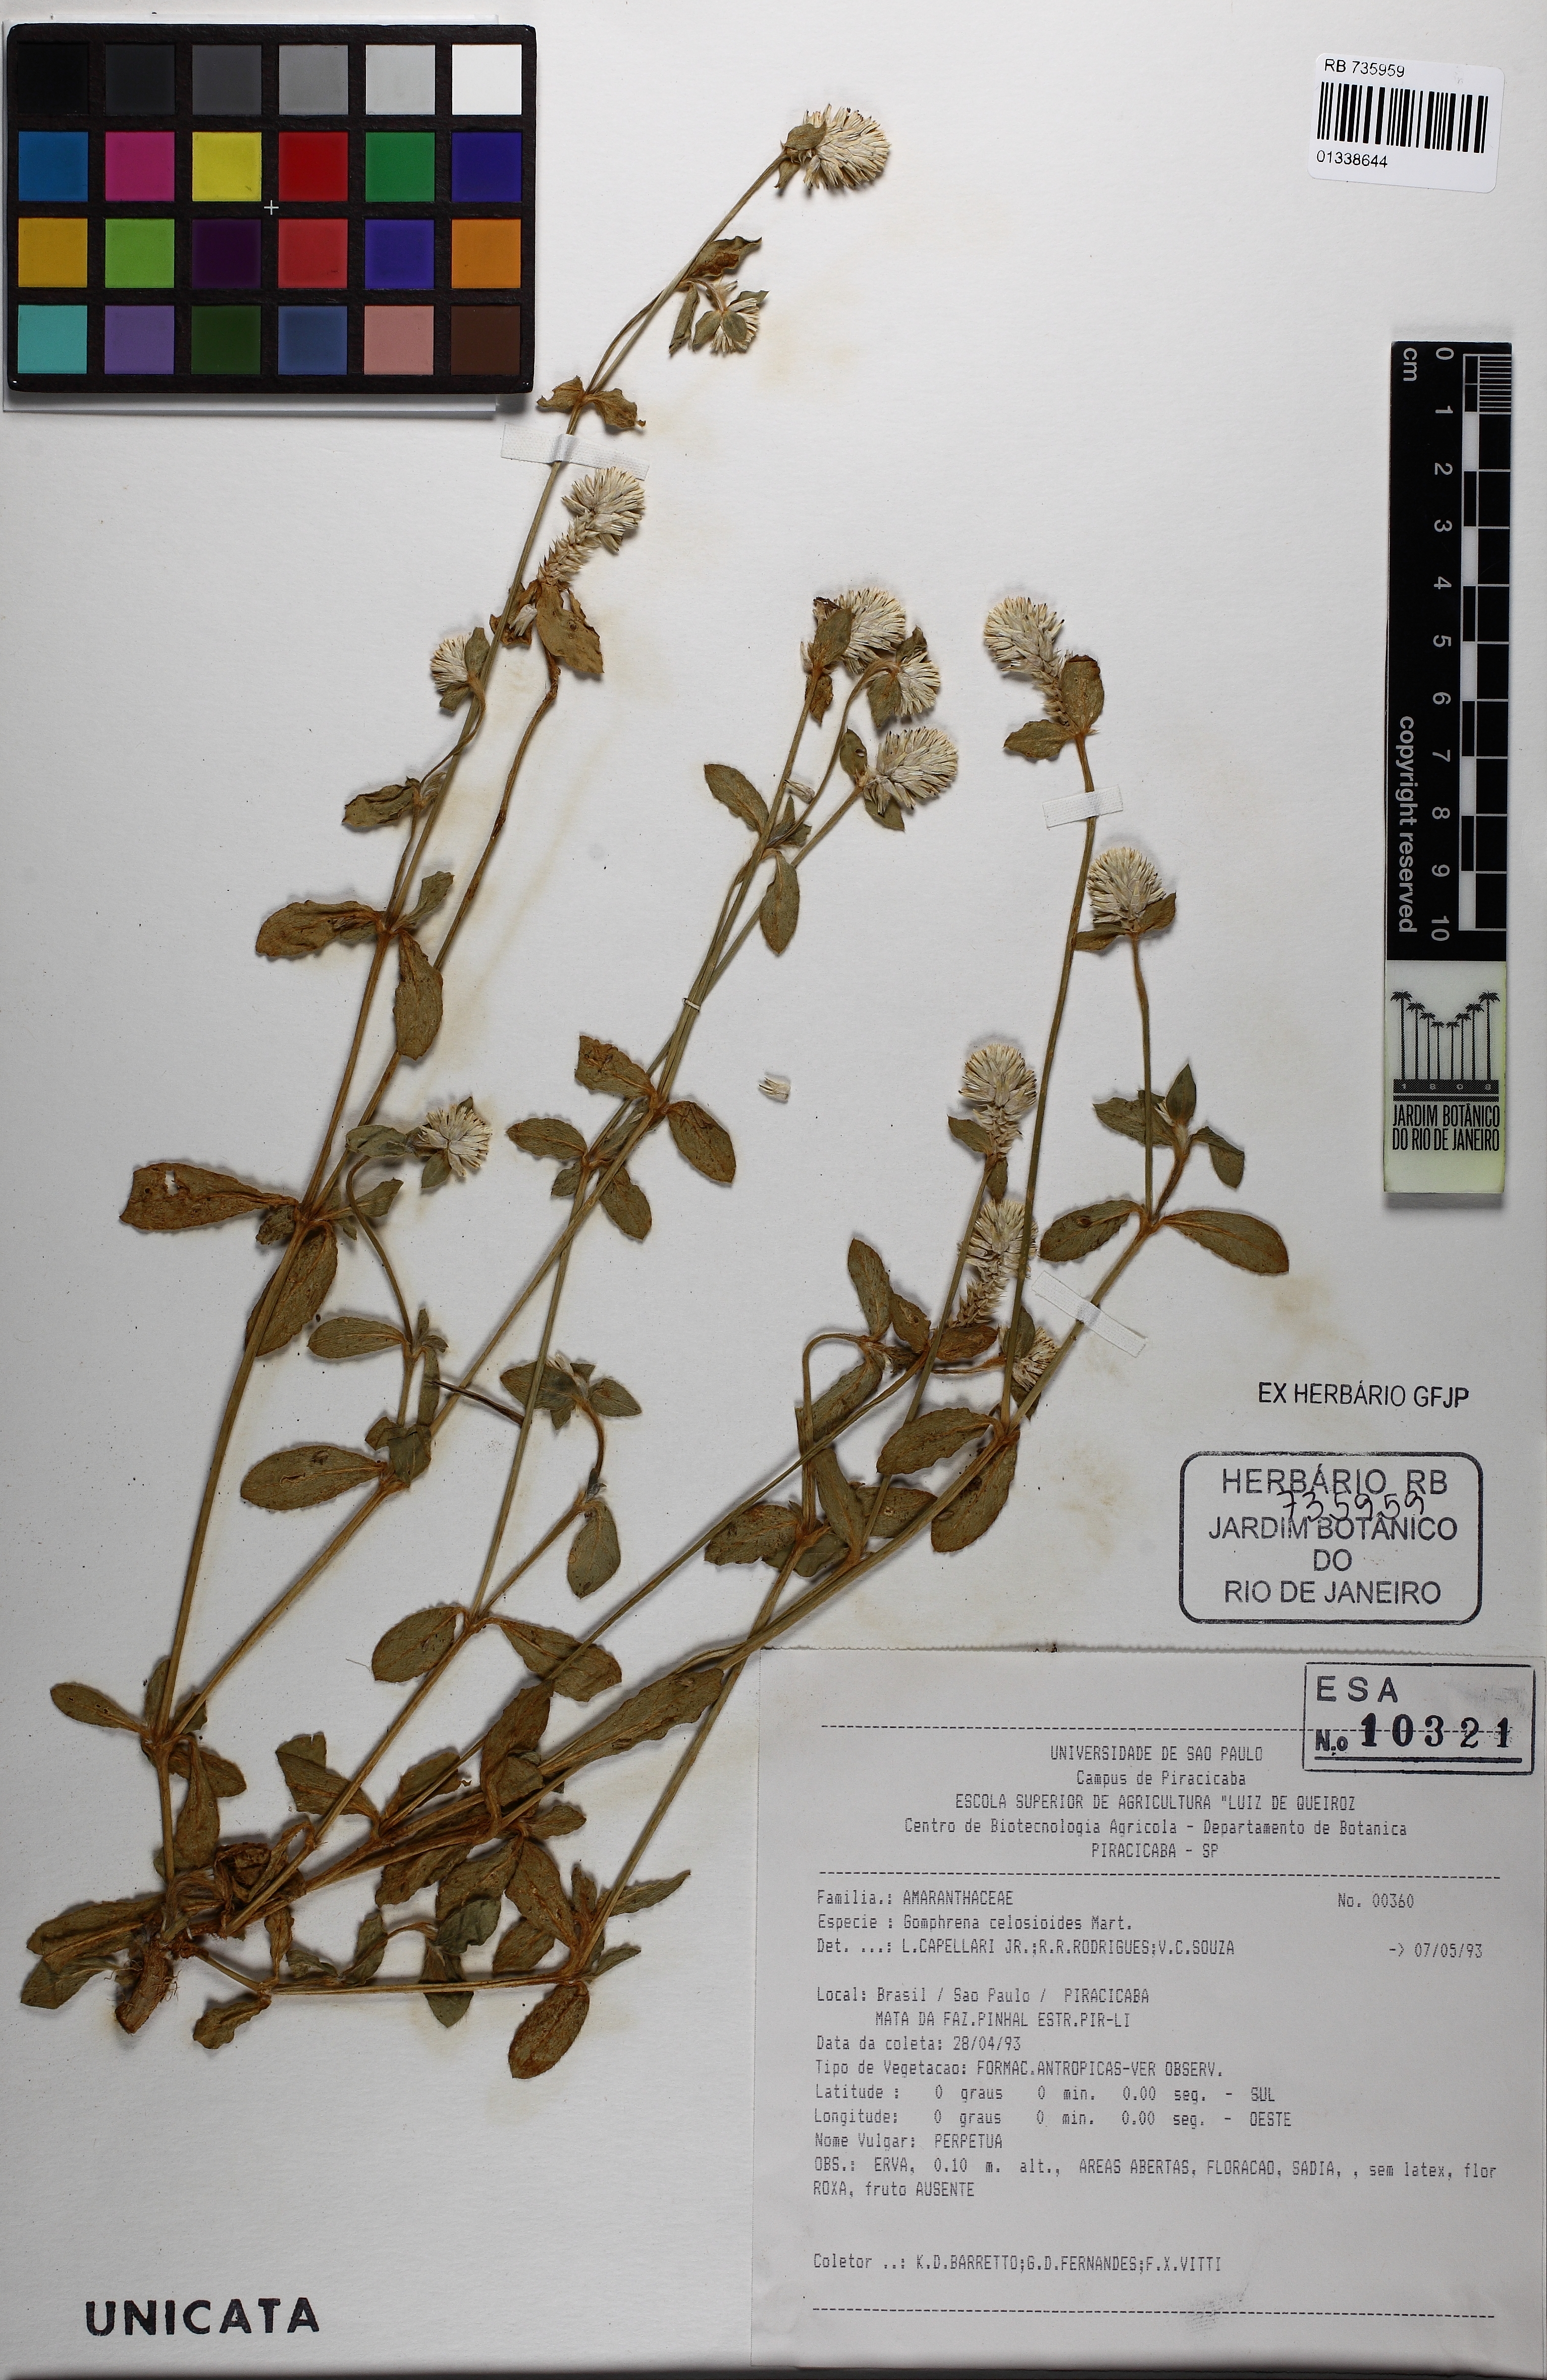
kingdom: Plantae
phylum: Tracheophyta
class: Magnoliopsida
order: Caryophyllales
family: Amaranthaceae
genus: Gomphrena
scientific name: Gomphrena celosioides
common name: Gomphrena-weed
